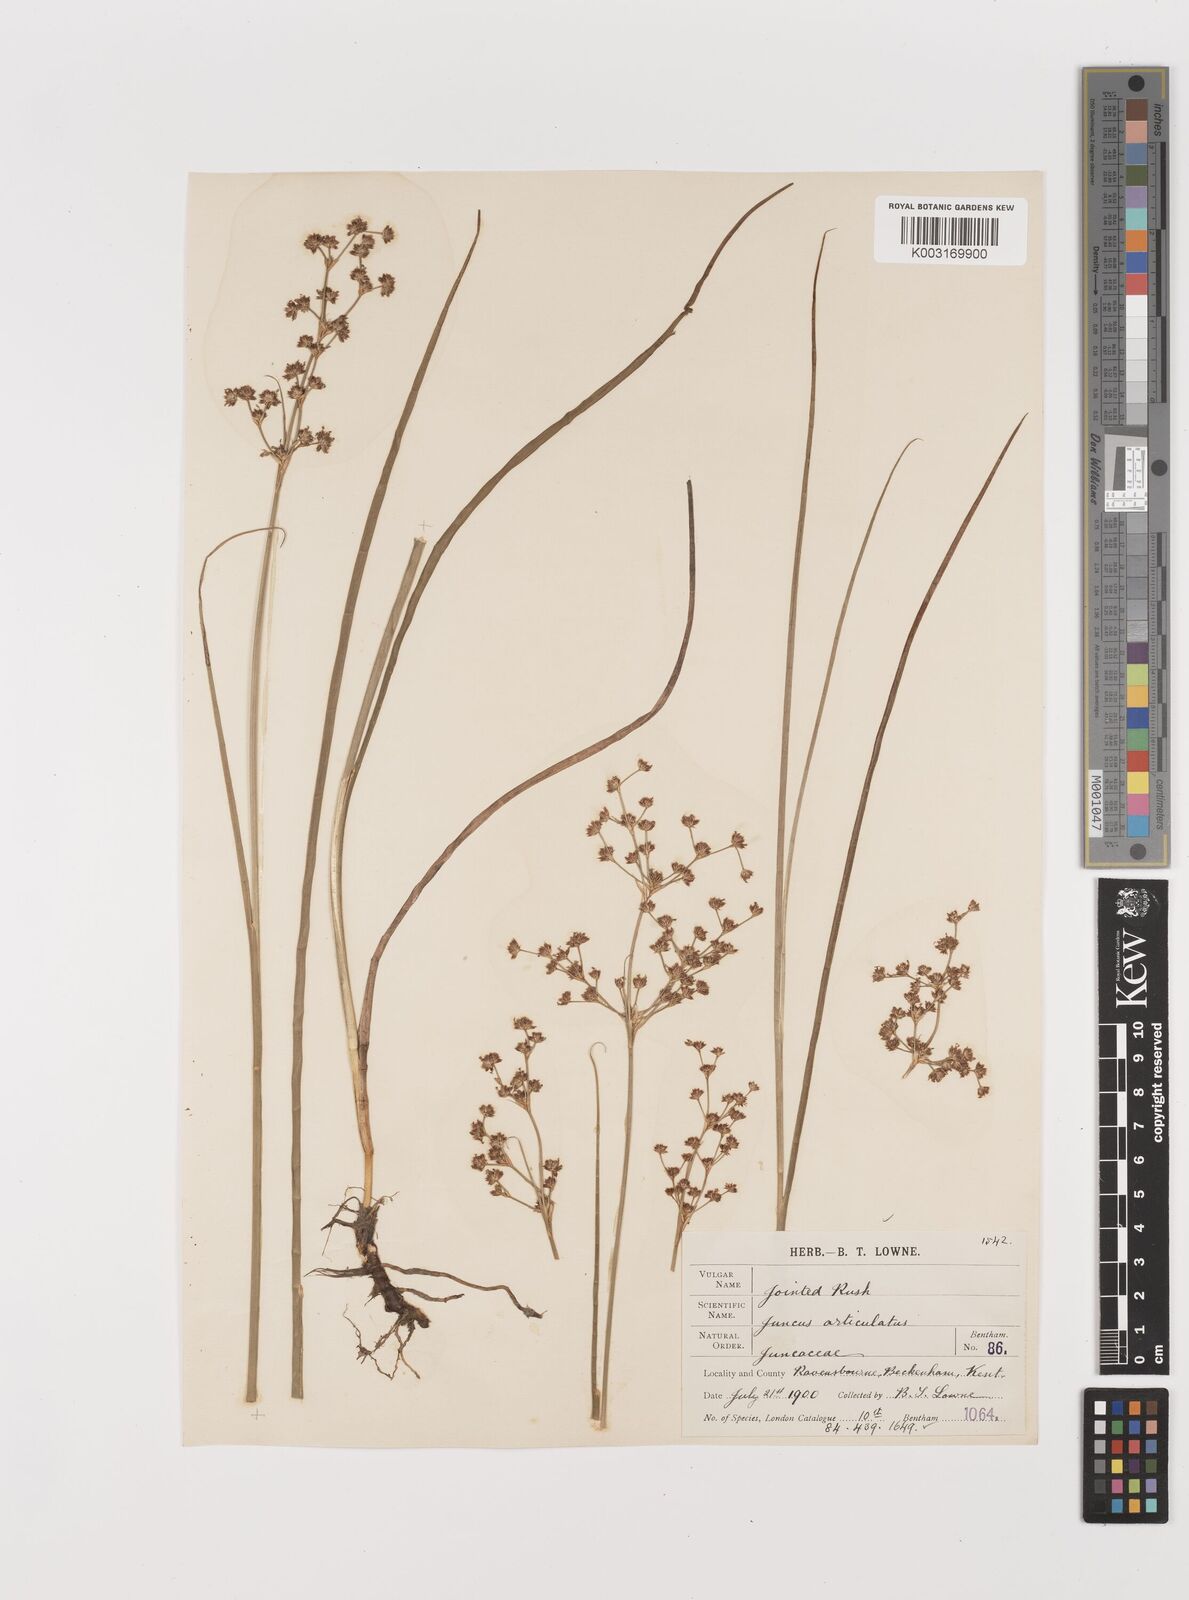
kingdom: Plantae
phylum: Tracheophyta
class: Liliopsida
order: Poales
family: Juncaceae
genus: Juncus
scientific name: Juncus articulatus
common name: Jointed rush
